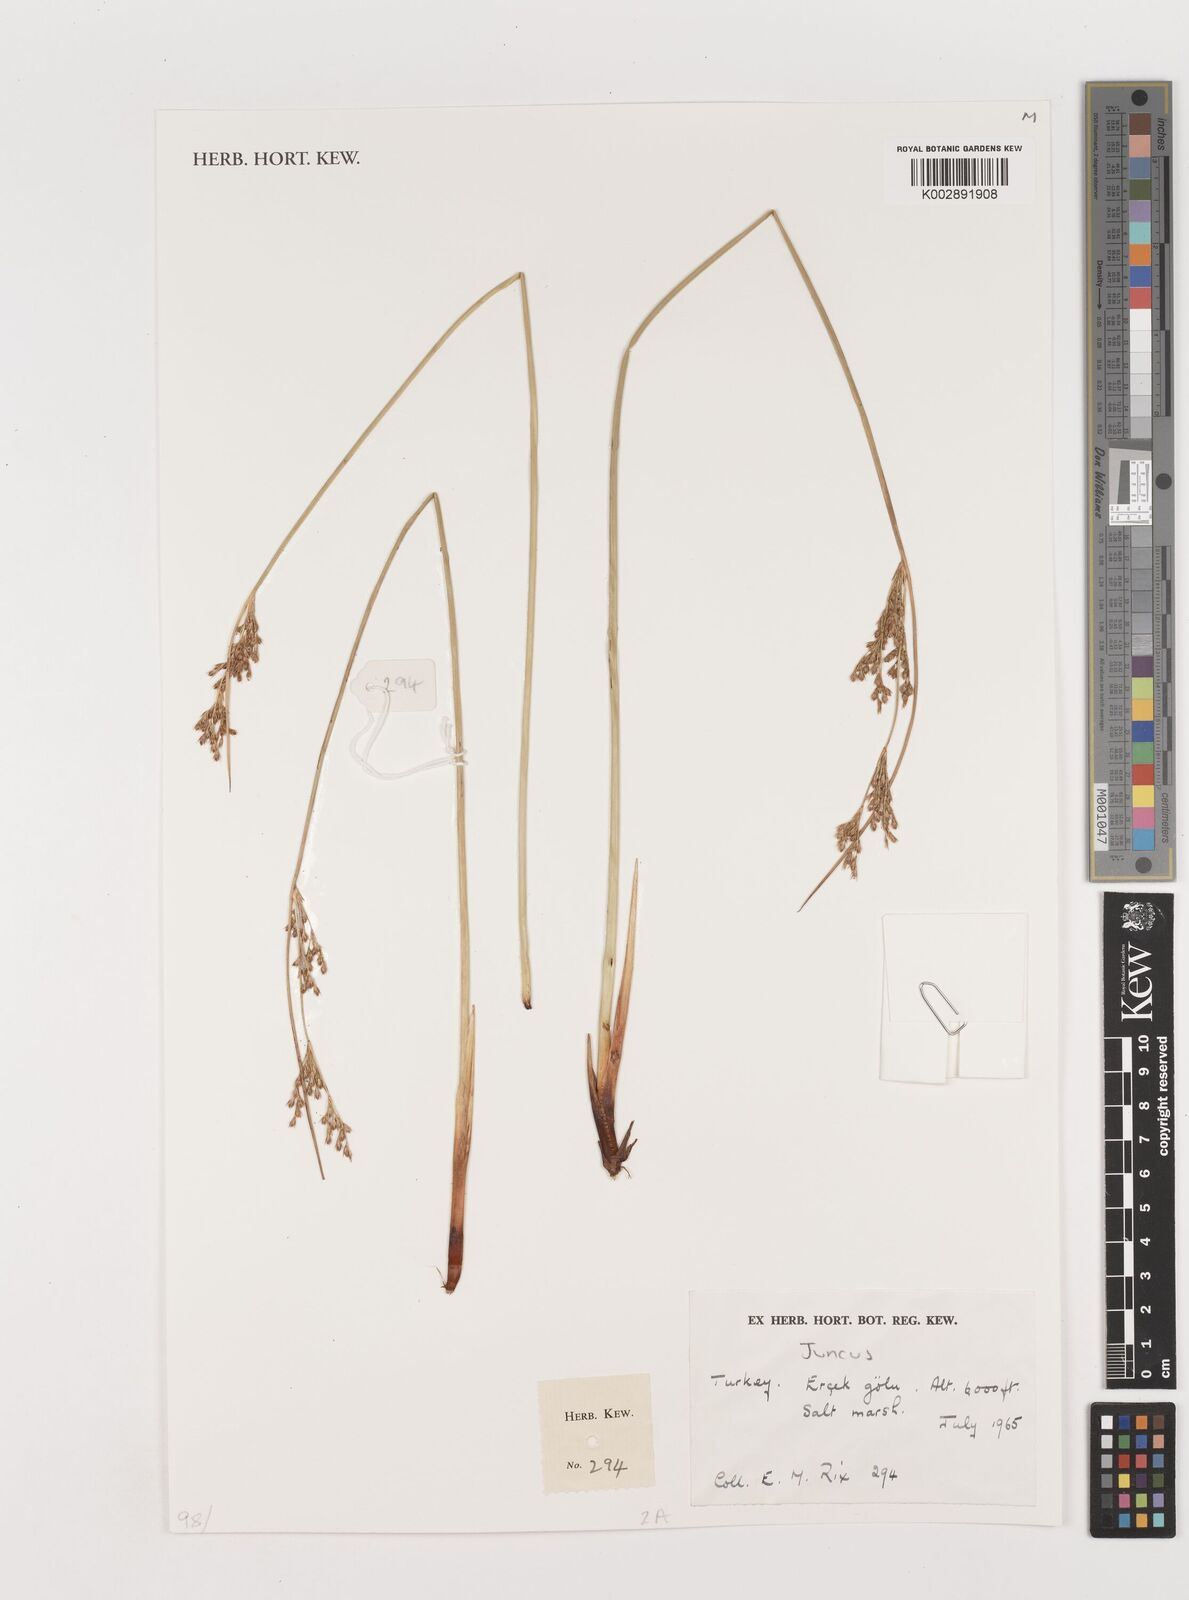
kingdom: Plantae
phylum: Tracheophyta
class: Liliopsida
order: Poales
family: Juncaceae
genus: Juncus
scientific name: Juncus
